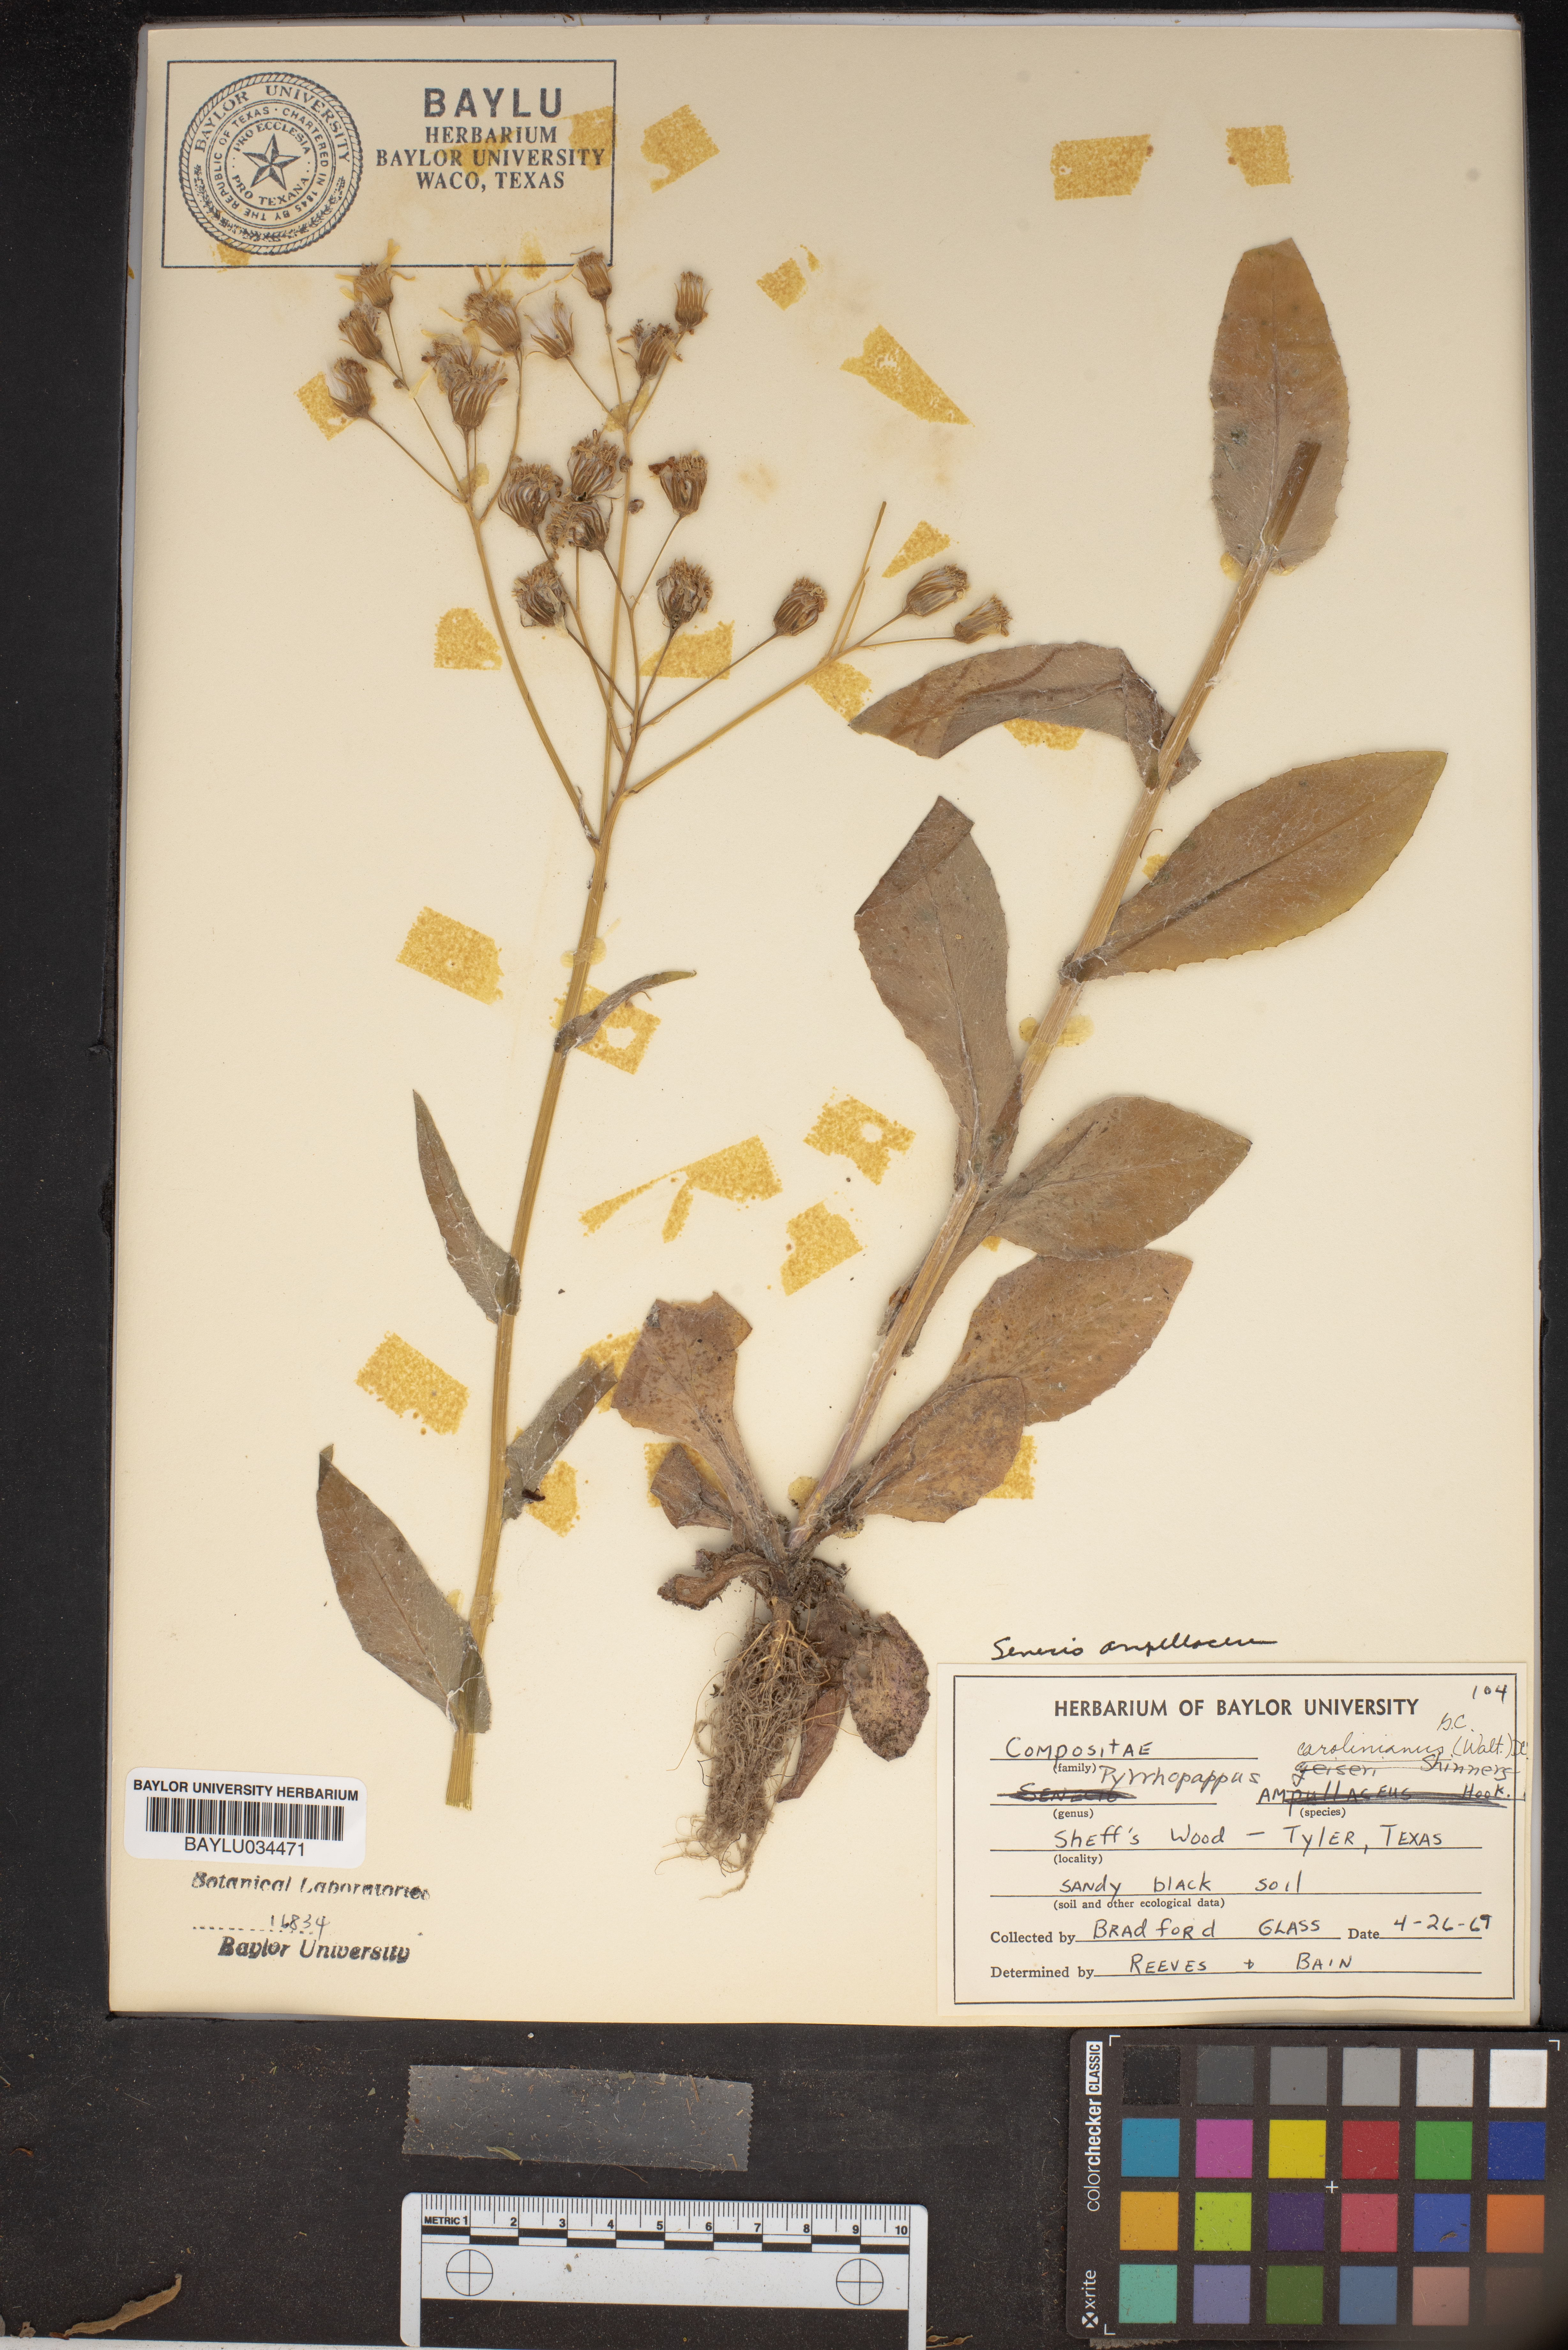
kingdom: Plantae
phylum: Tracheophyta
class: Magnoliopsida
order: Asterales
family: Asteraceae
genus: Pyrrhopappus
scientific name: Pyrrhopappus carolinianus
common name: Carolina desert-chicory
